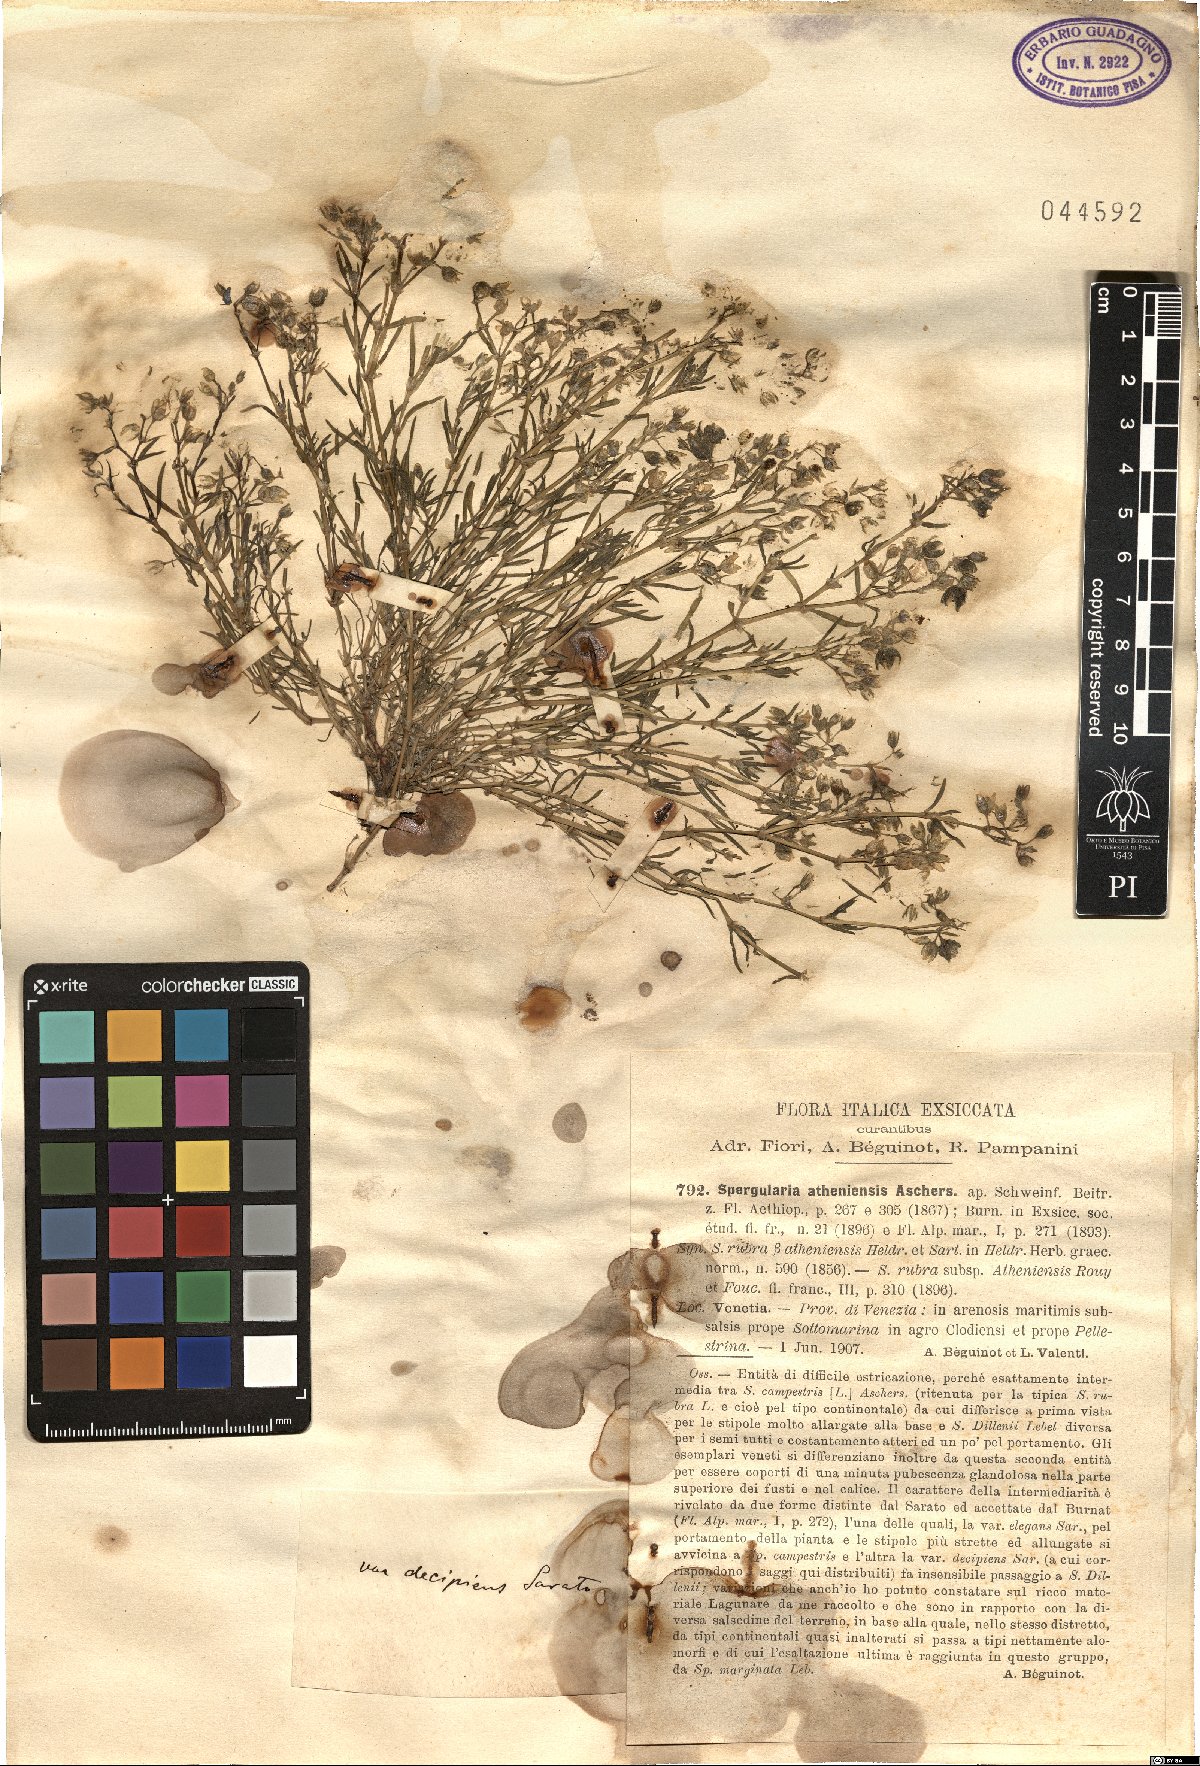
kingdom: Plantae
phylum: Tracheophyta
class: Magnoliopsida
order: Caryophyllales
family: Caryophyllaceae
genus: Spergularia
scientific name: Spergularia bocconei
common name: Greek sea-spurrey
